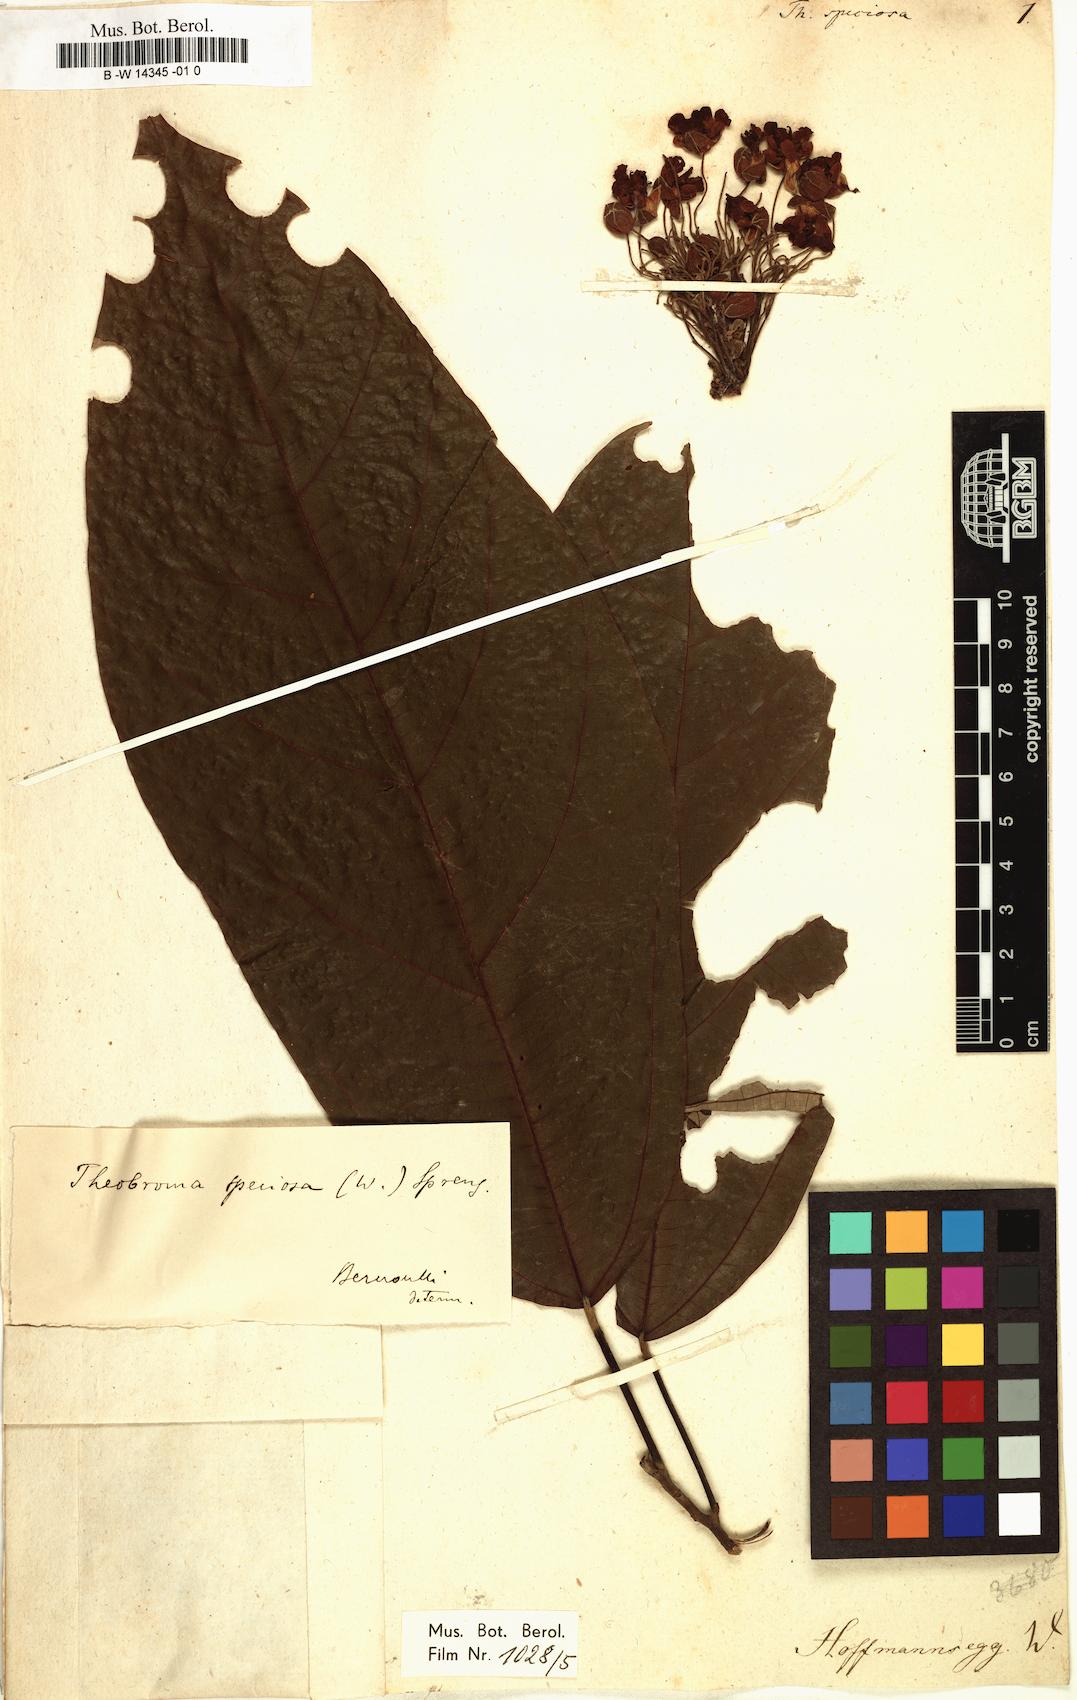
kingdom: Plantae
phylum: Tracheophyta
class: Magnoliopsida
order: Malvales
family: Malvaceae
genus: Theobroma
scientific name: Theobroma speciosum
